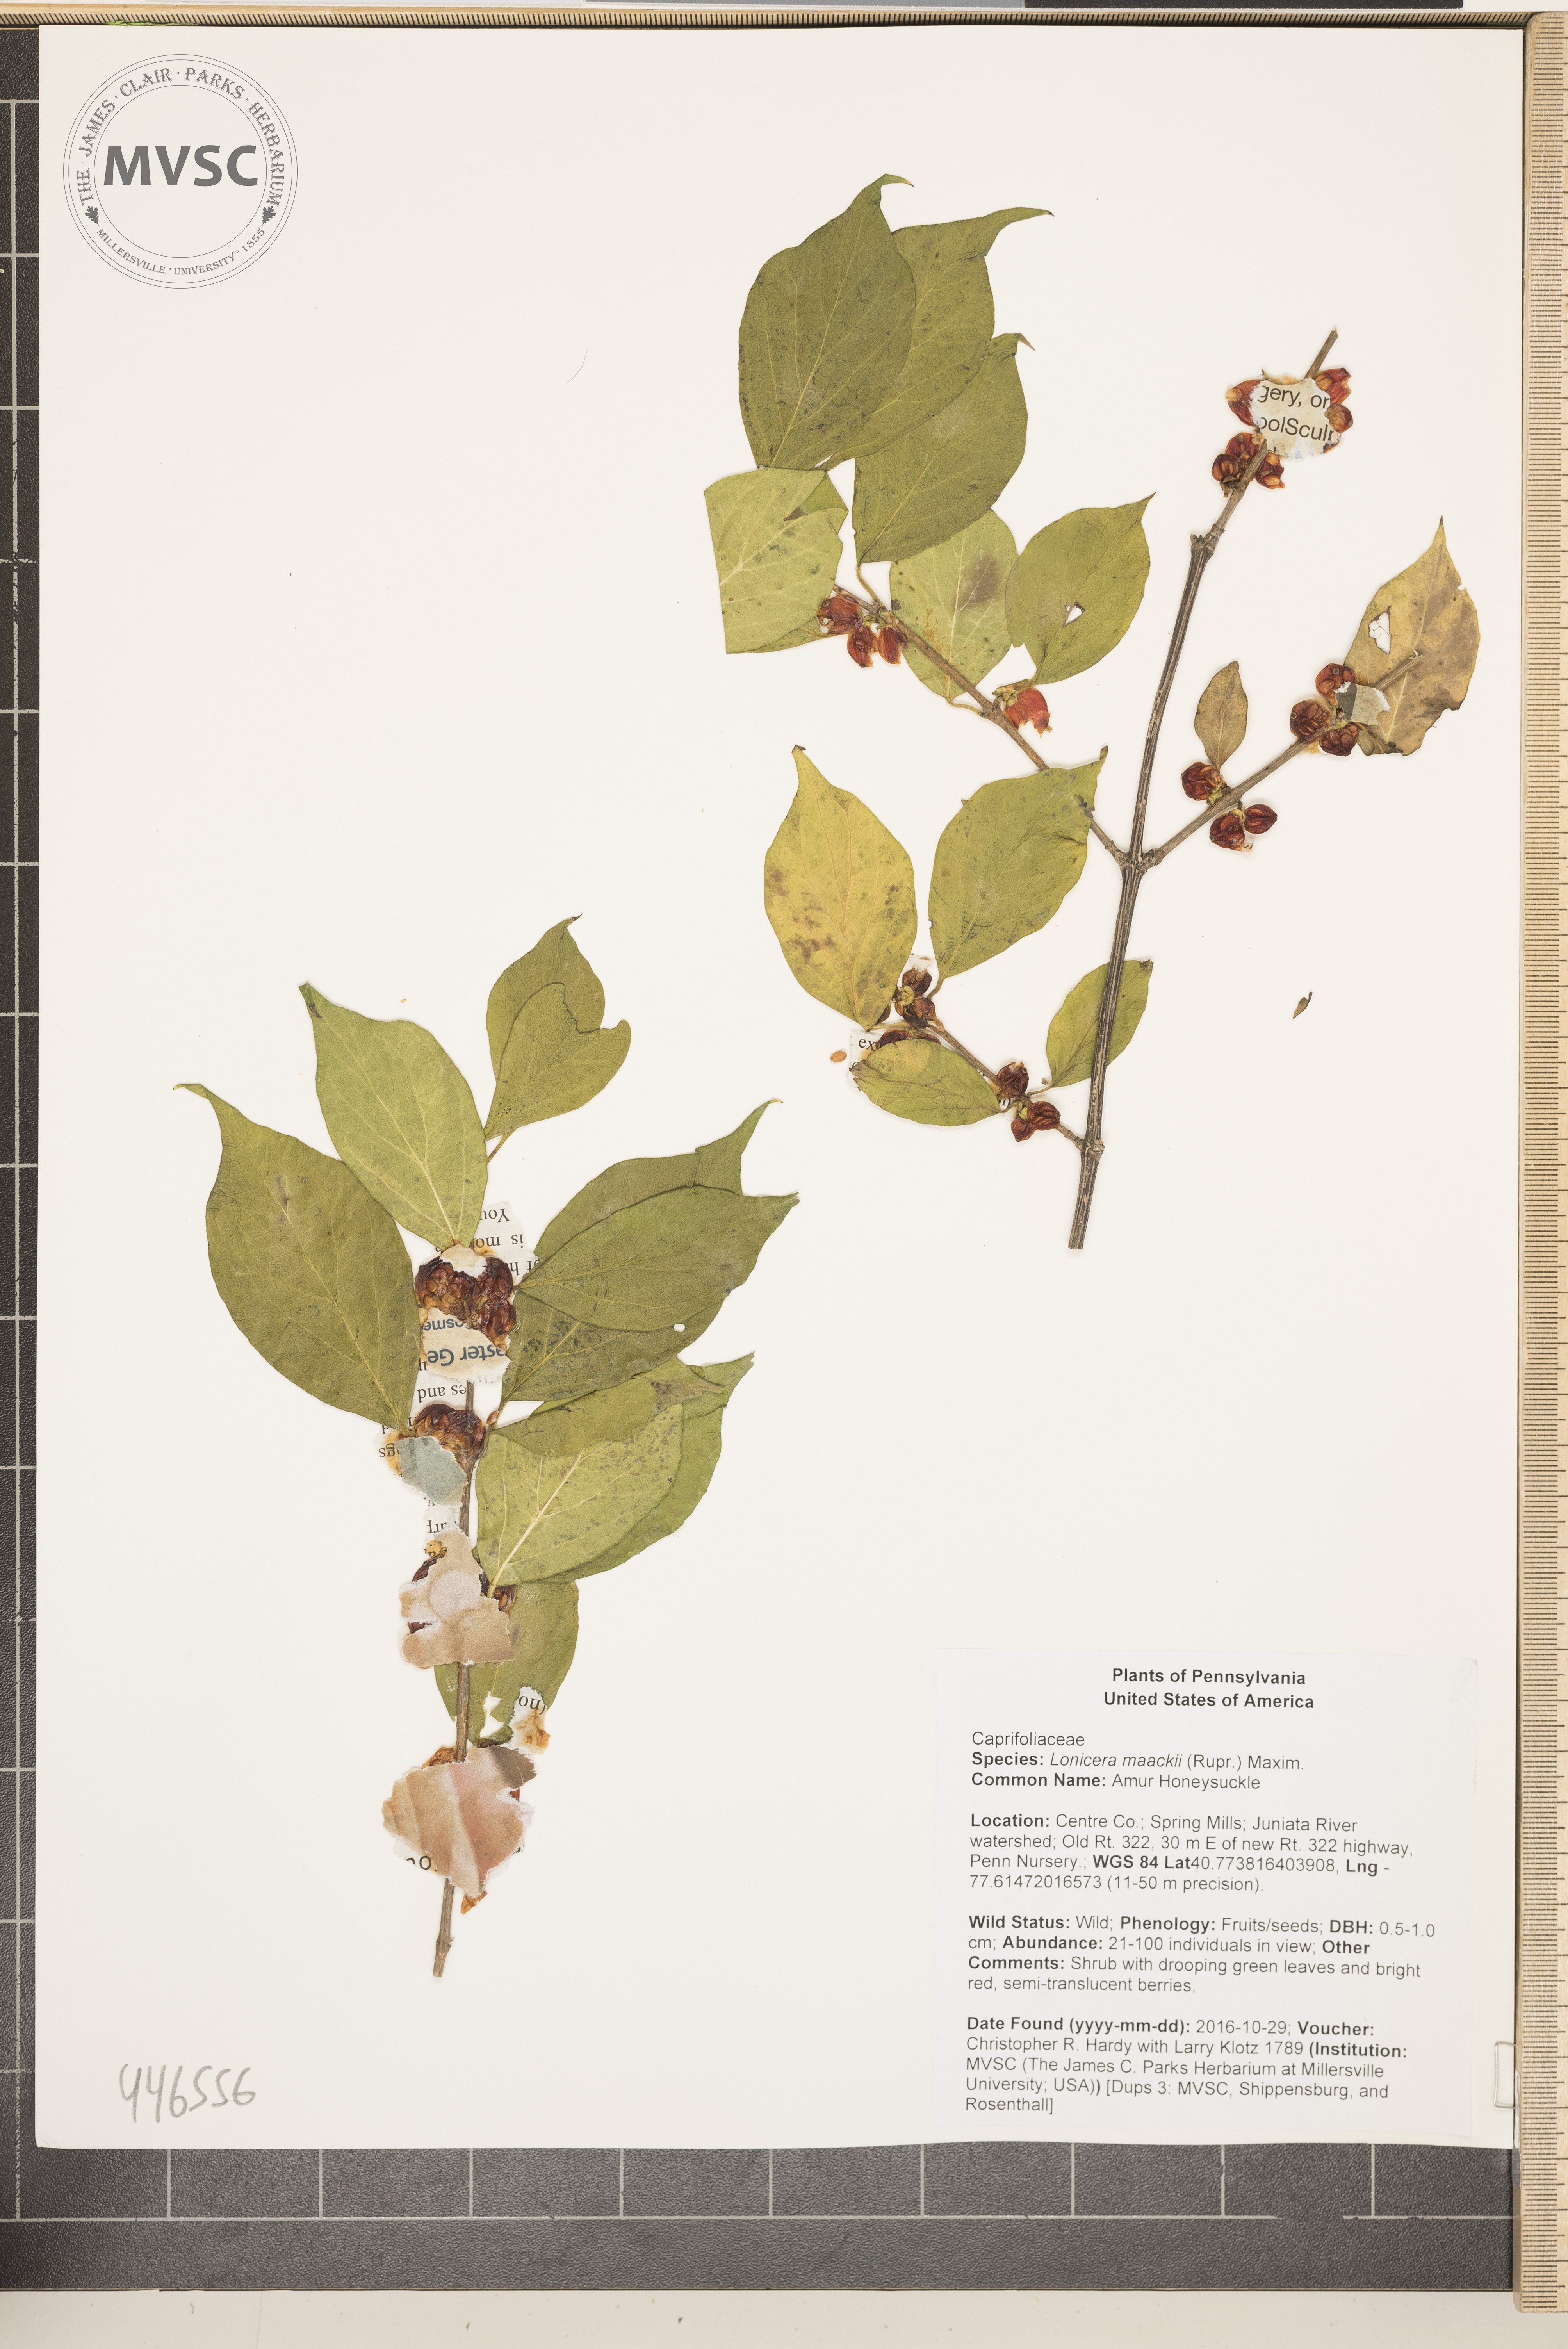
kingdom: Plantae
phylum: Tracheophyta
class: Magnoliopsida
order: Dipsacales
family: Caprifoliaceae
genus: Lonicera
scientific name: Lonicera maackii
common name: Amur Honeysuckle
